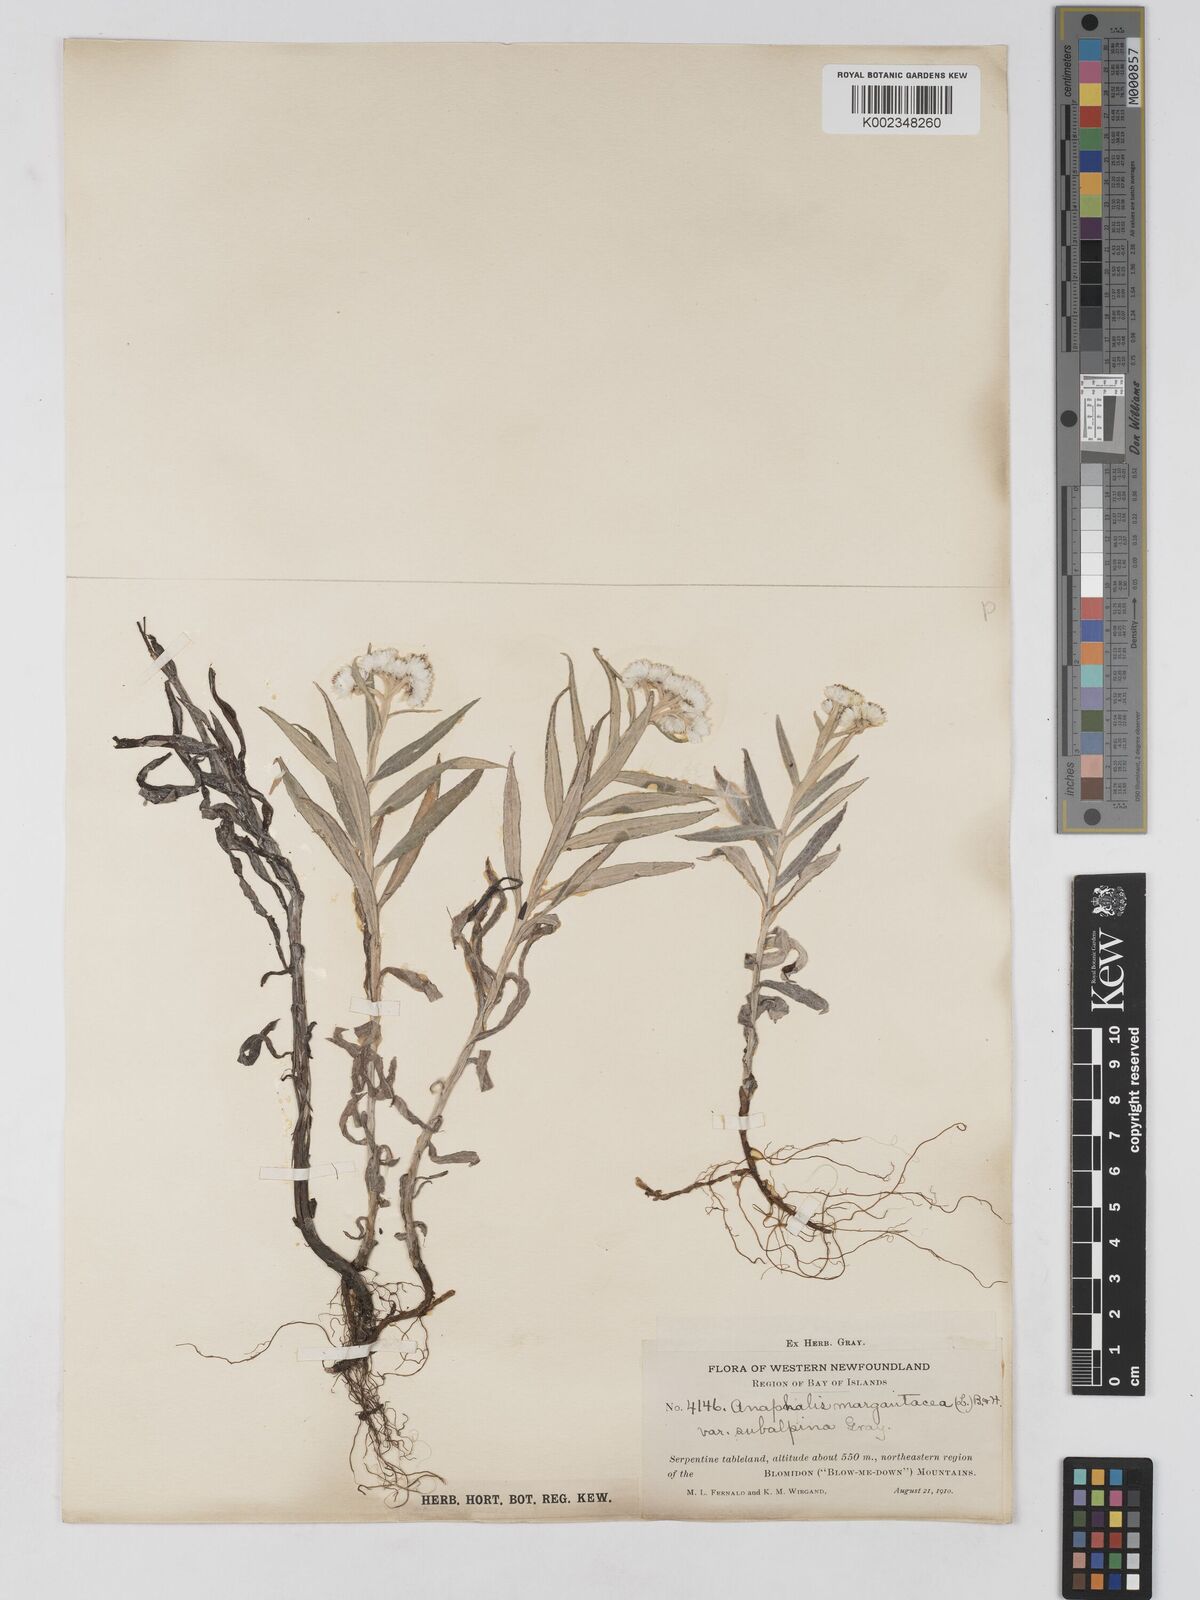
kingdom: Plantae
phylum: Tracheophyta
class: Magnoliopsida
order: Asterales
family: Asteraceae
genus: Anaphalis
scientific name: Anaphalis margaritacea
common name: Pearly everlasting
